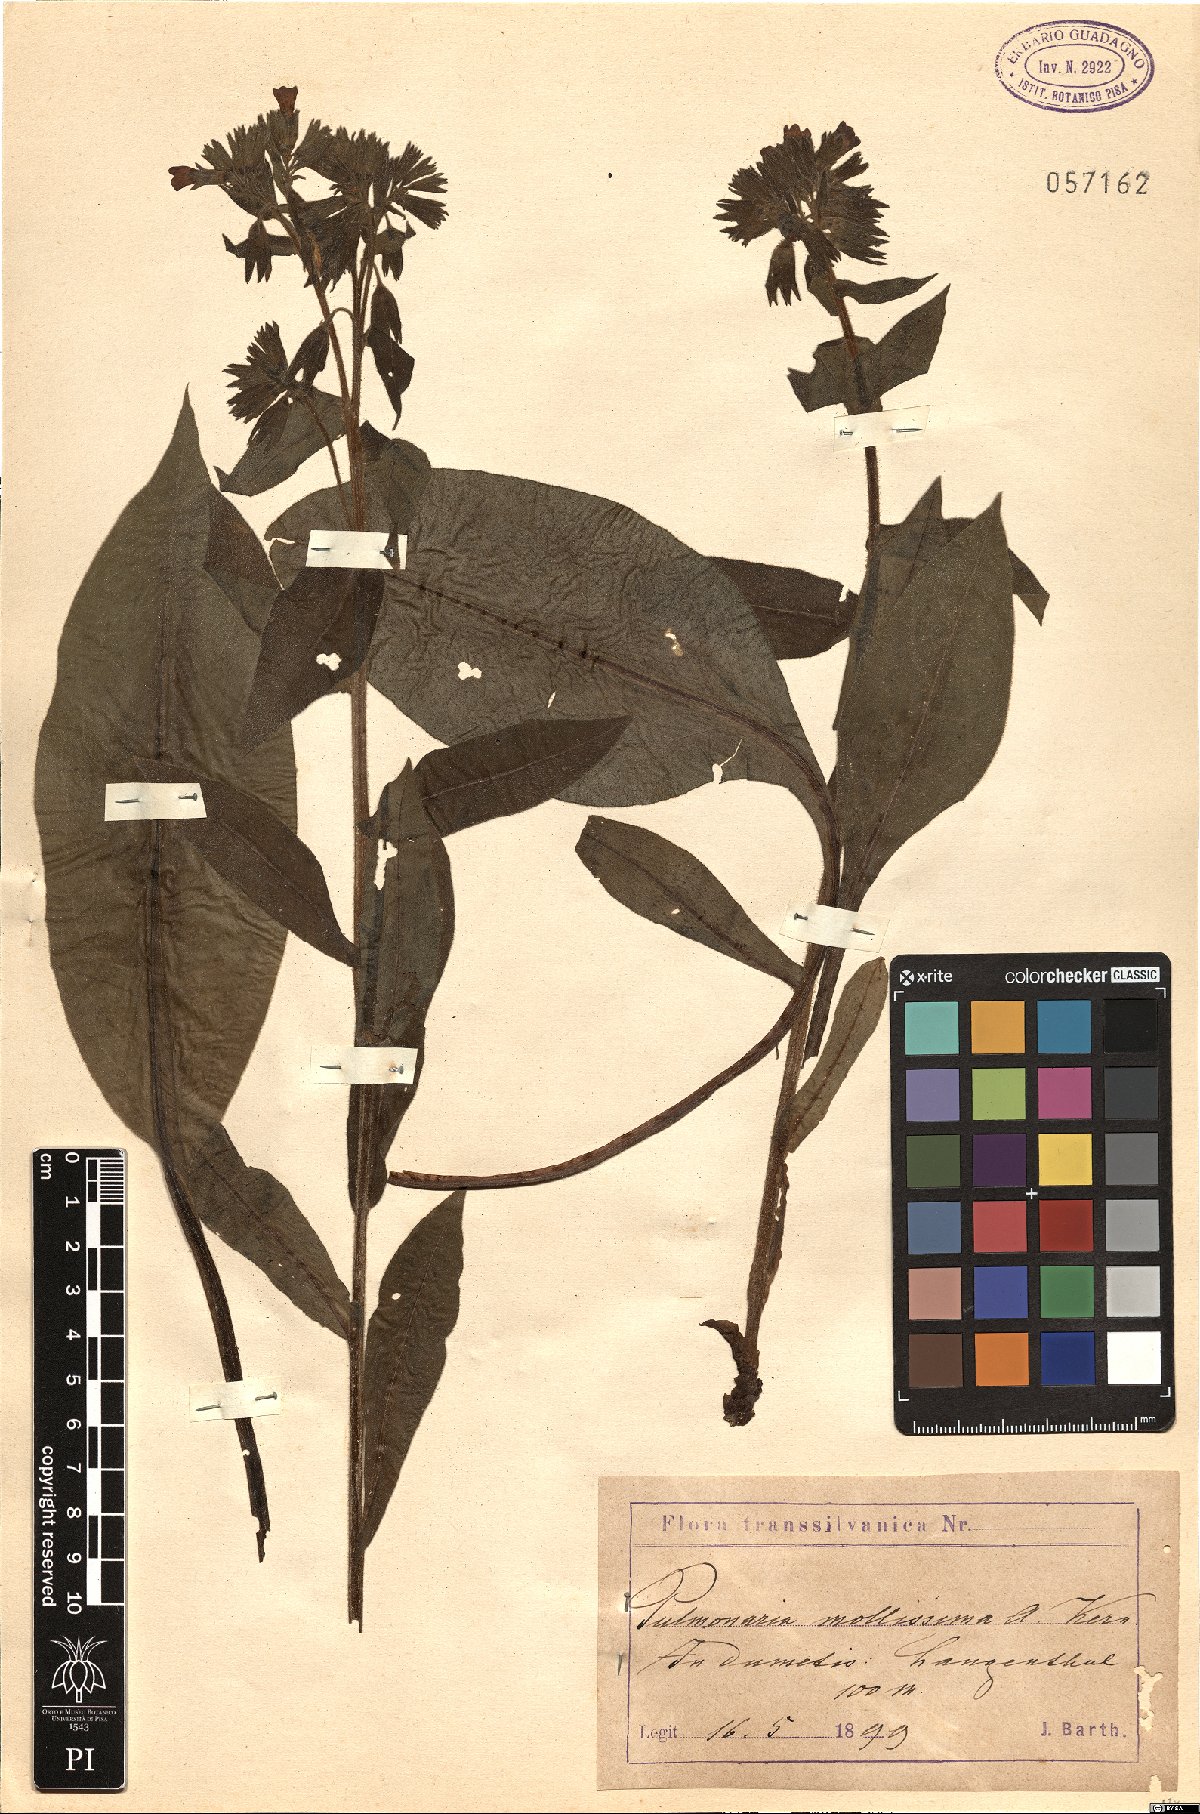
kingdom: Plantae
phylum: Tracheophyta
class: Magnoliopsida
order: Boraginales
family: Boraginaceae
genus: Pulmonaria
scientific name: Pulmonaria mollis
